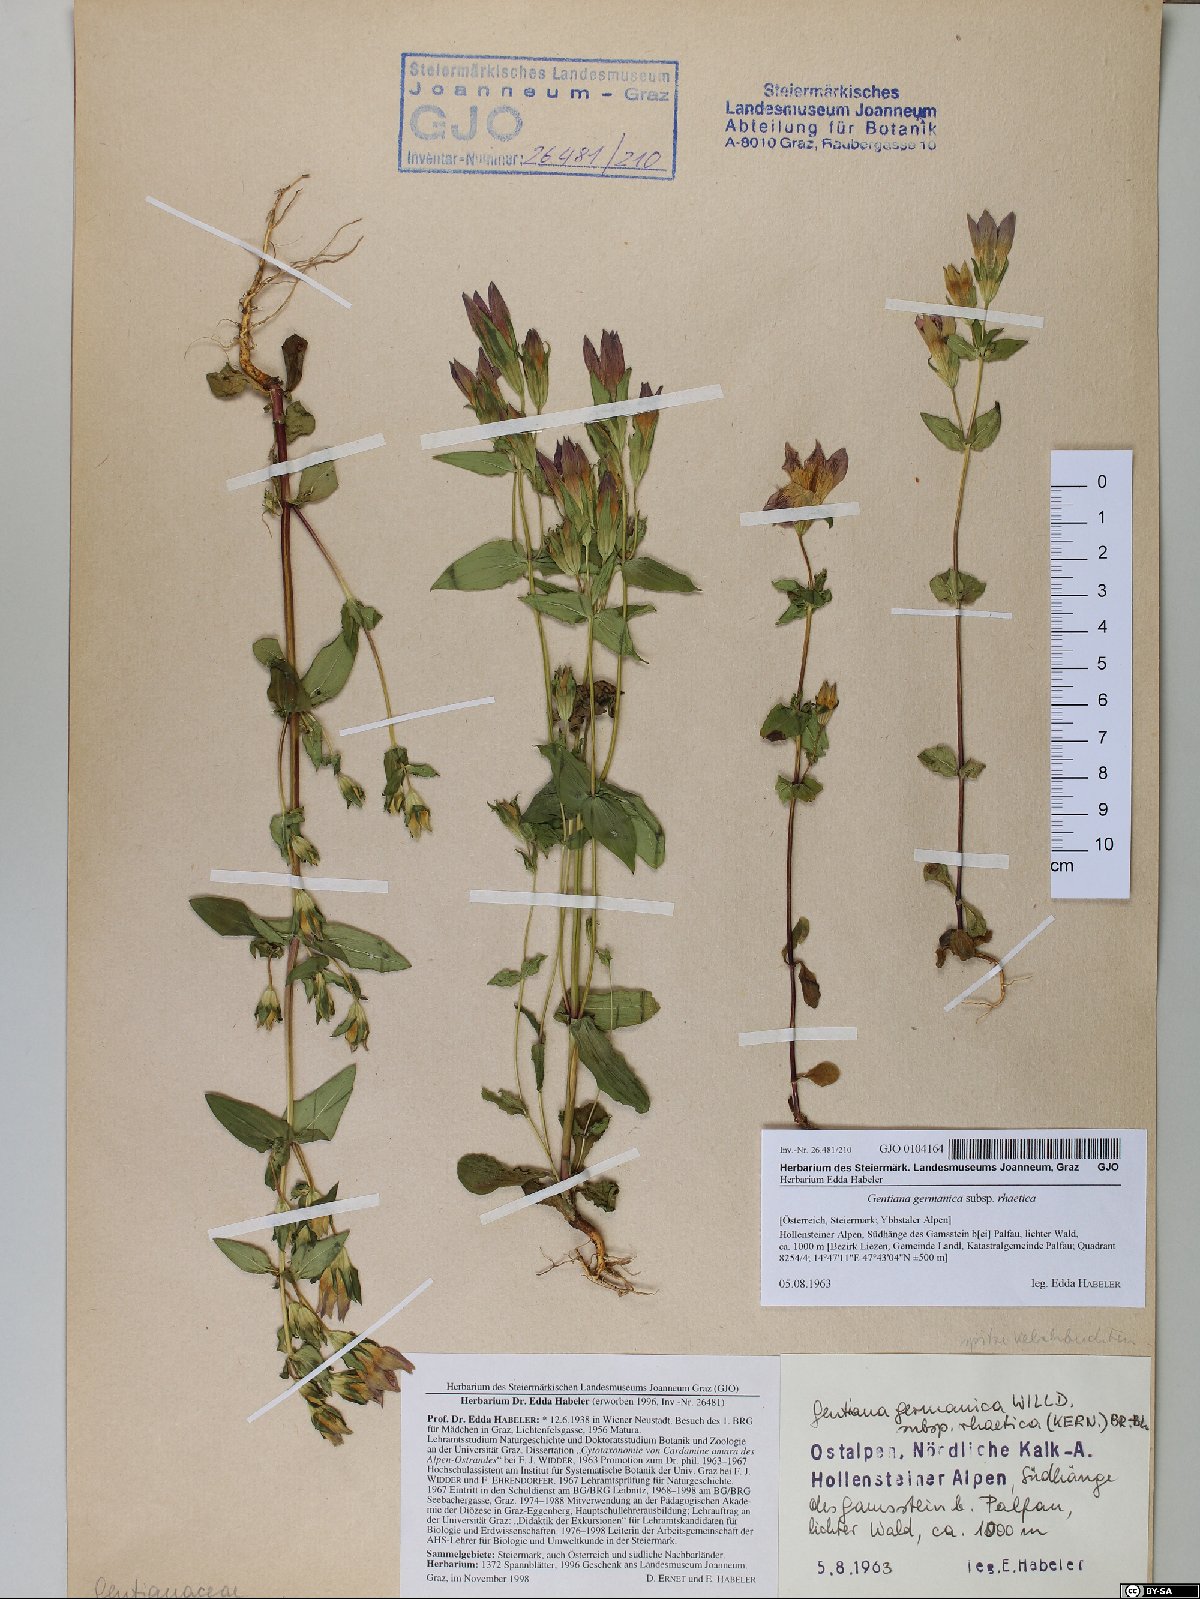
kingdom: Plantae
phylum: Tracheophyta
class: Magnoliopsida
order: Gentianales
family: Gentianaceae
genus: Gentianella
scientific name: Gentianella rhaetica
